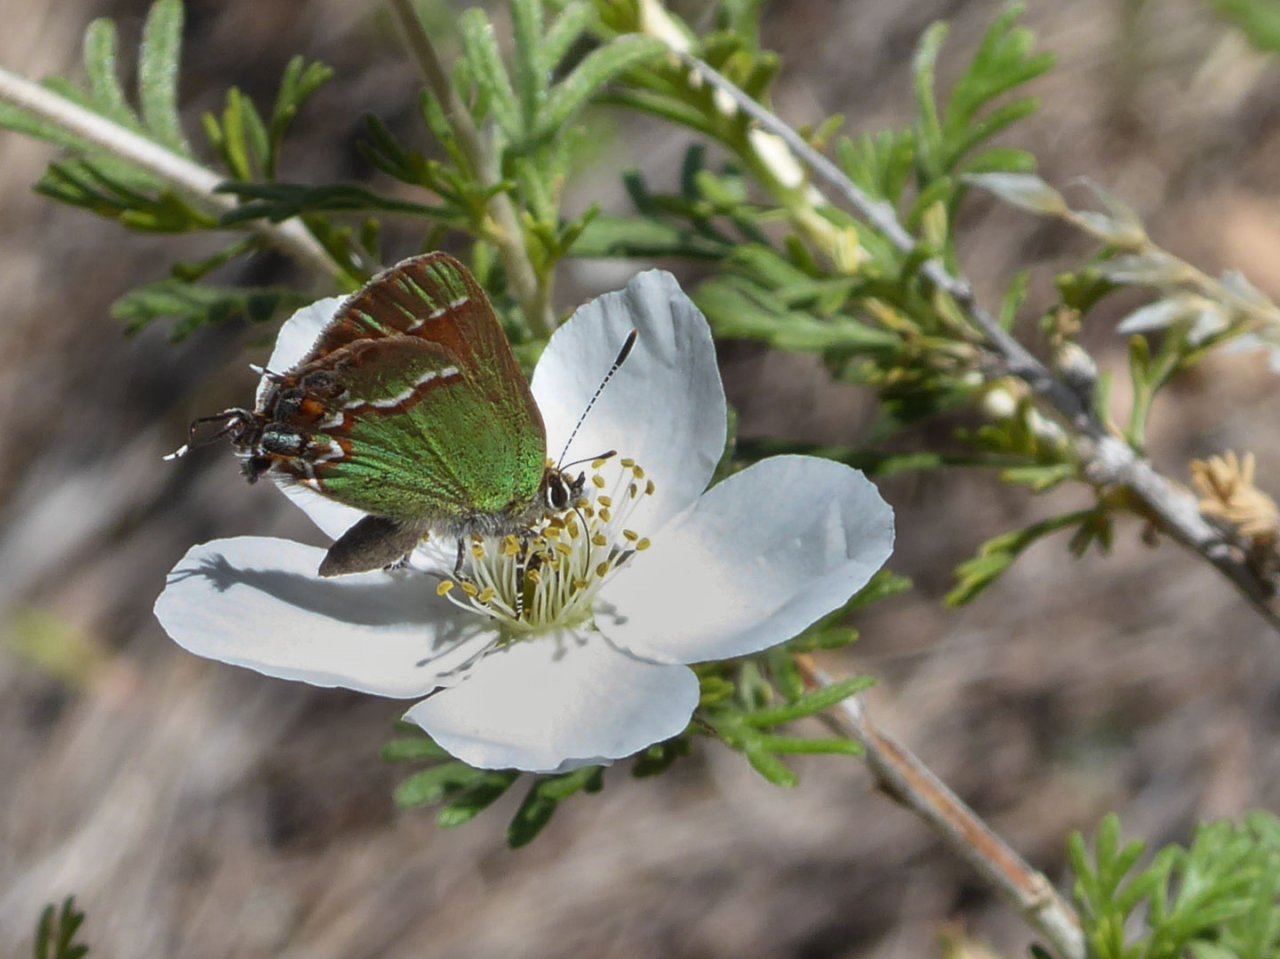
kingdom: Animalia
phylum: Arthropoda
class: Insecta
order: Lepidoptera
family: Lycaenidae
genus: Mitoura
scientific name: Mitoura gryneus
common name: Juniper Hairstreak
